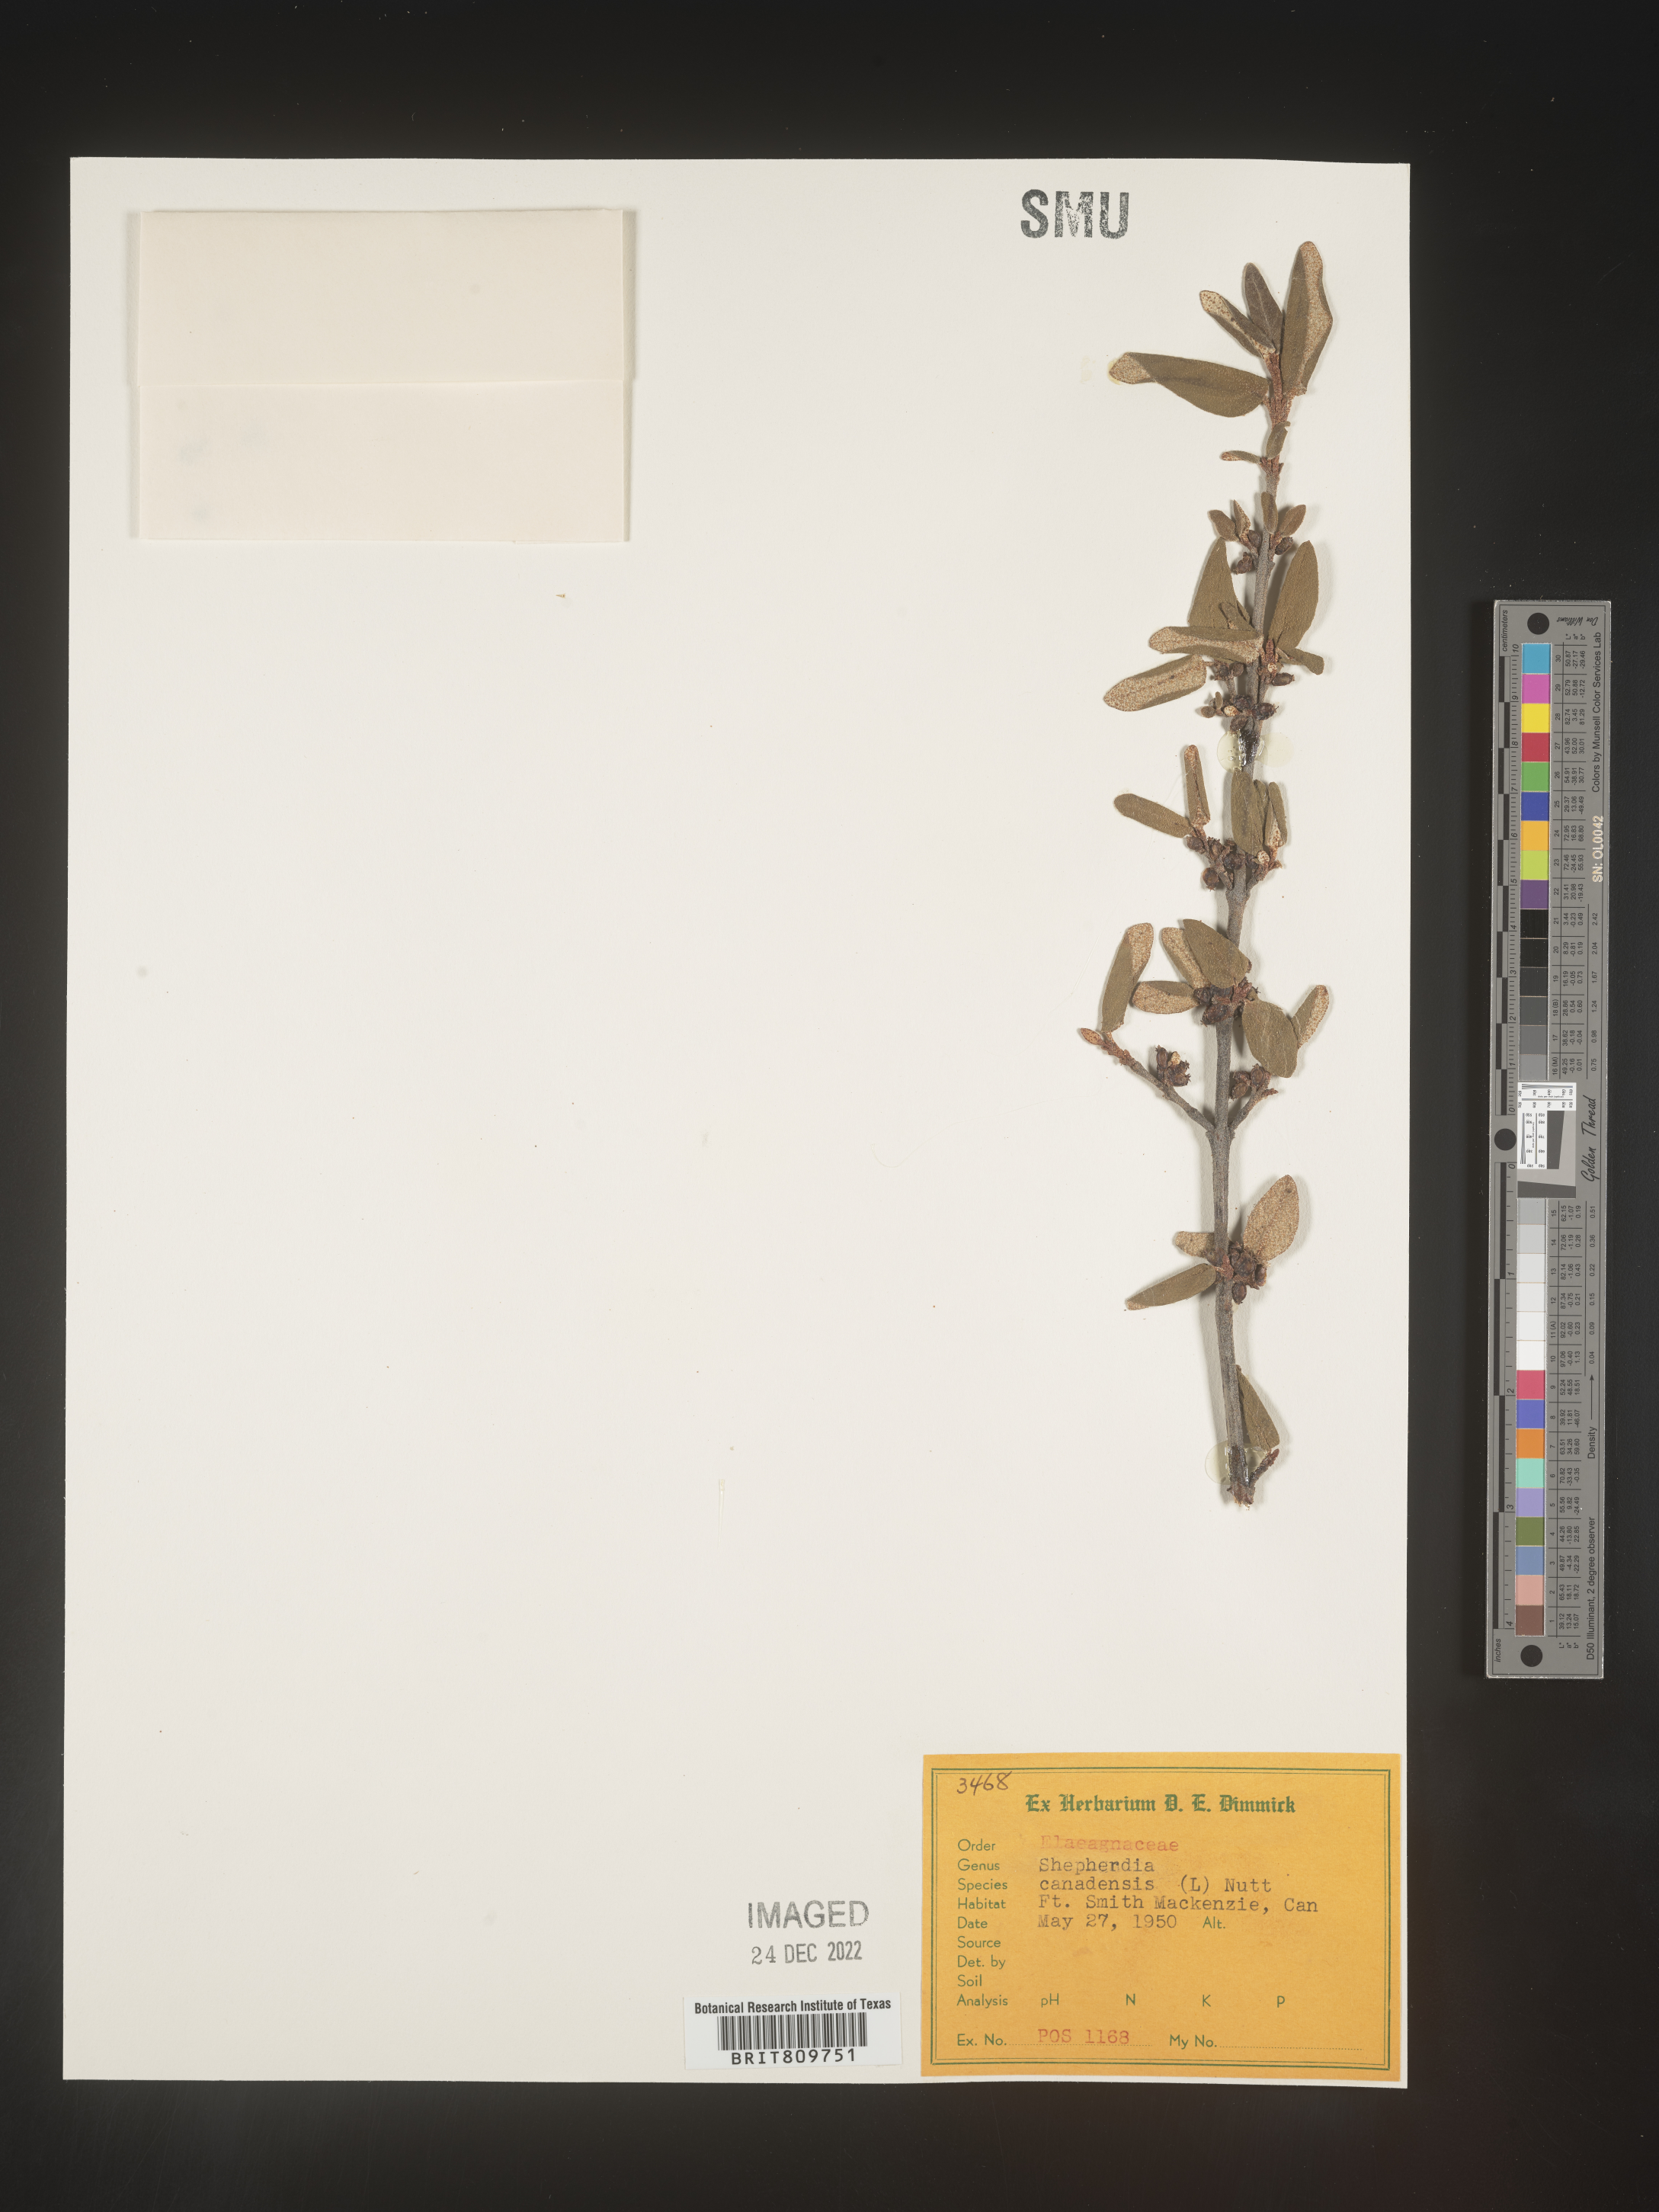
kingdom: Plantae
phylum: Tracheophyta
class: Magnoliopsida
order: Rosales
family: Elaeagnaceae
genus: Shepherdia
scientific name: Shepherdia canadensis
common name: Soapberry
